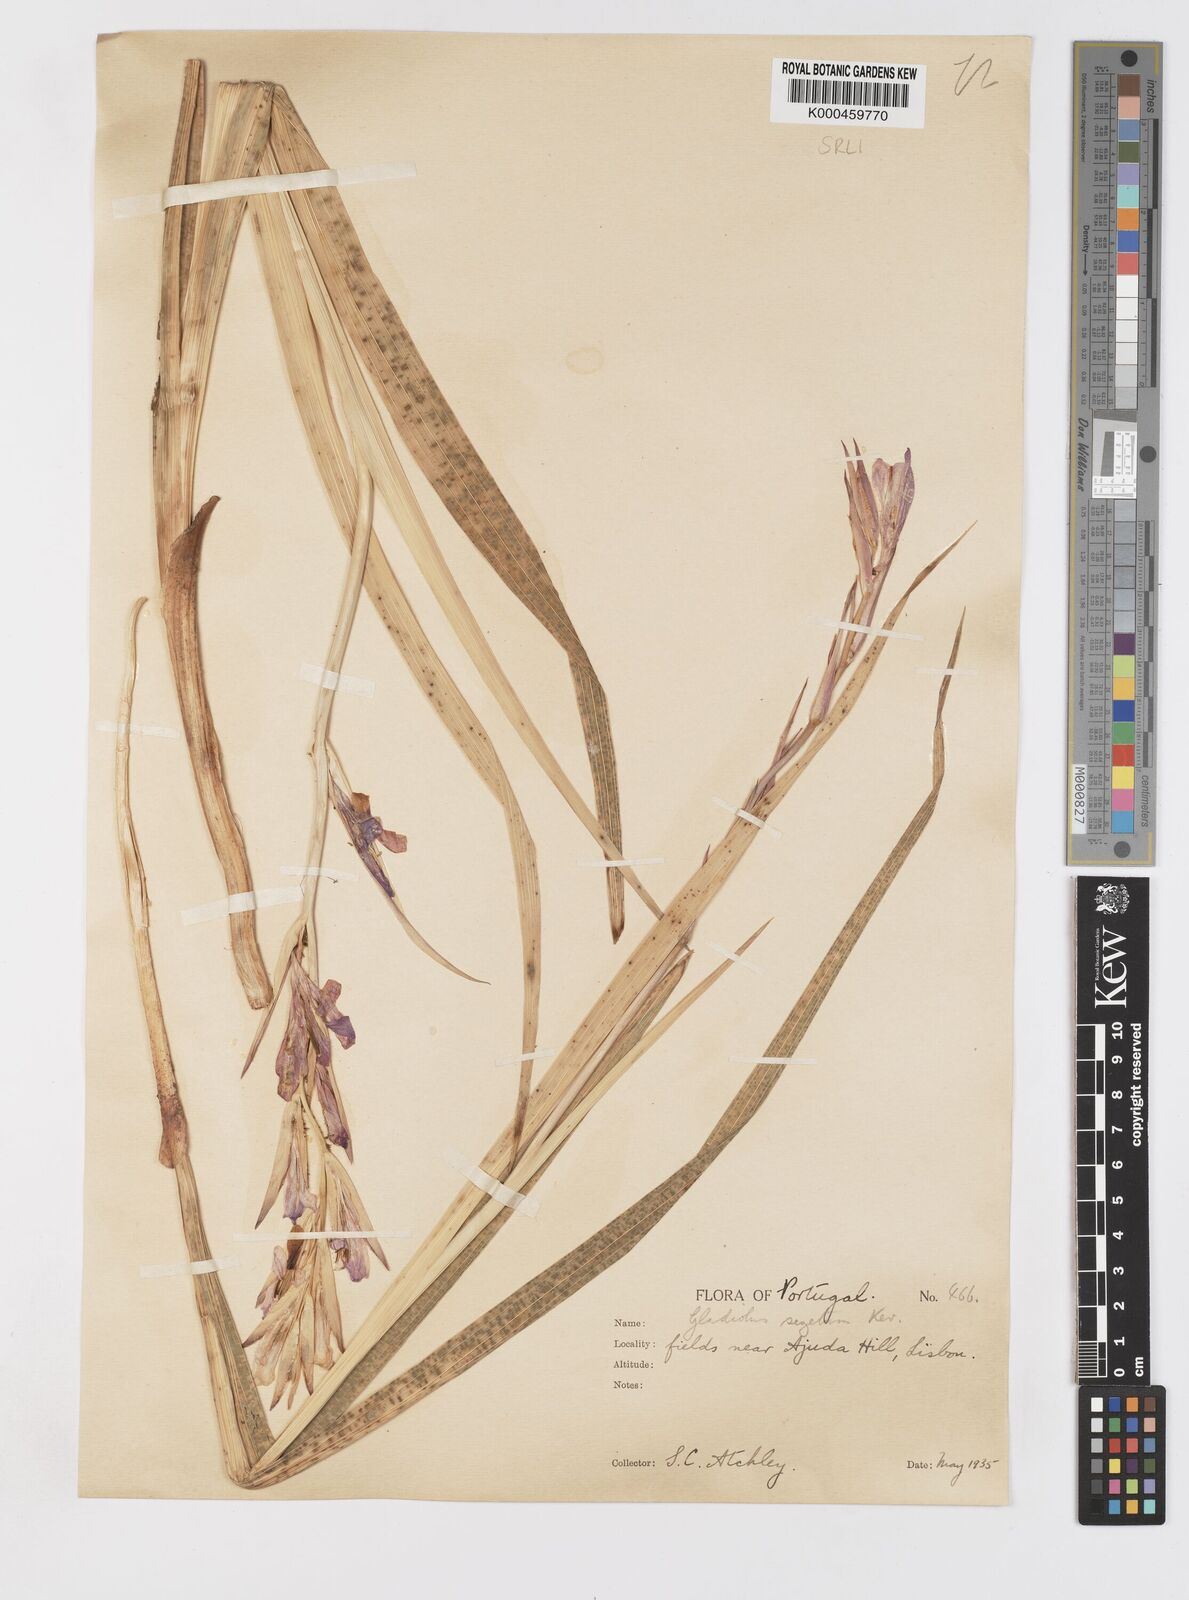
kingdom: Plantae
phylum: Tracheophyta
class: Liliopsida
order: Asparagales
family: Iridaceae
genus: Gladiolus
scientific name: Gladiolus italicus
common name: Field gladiolus
